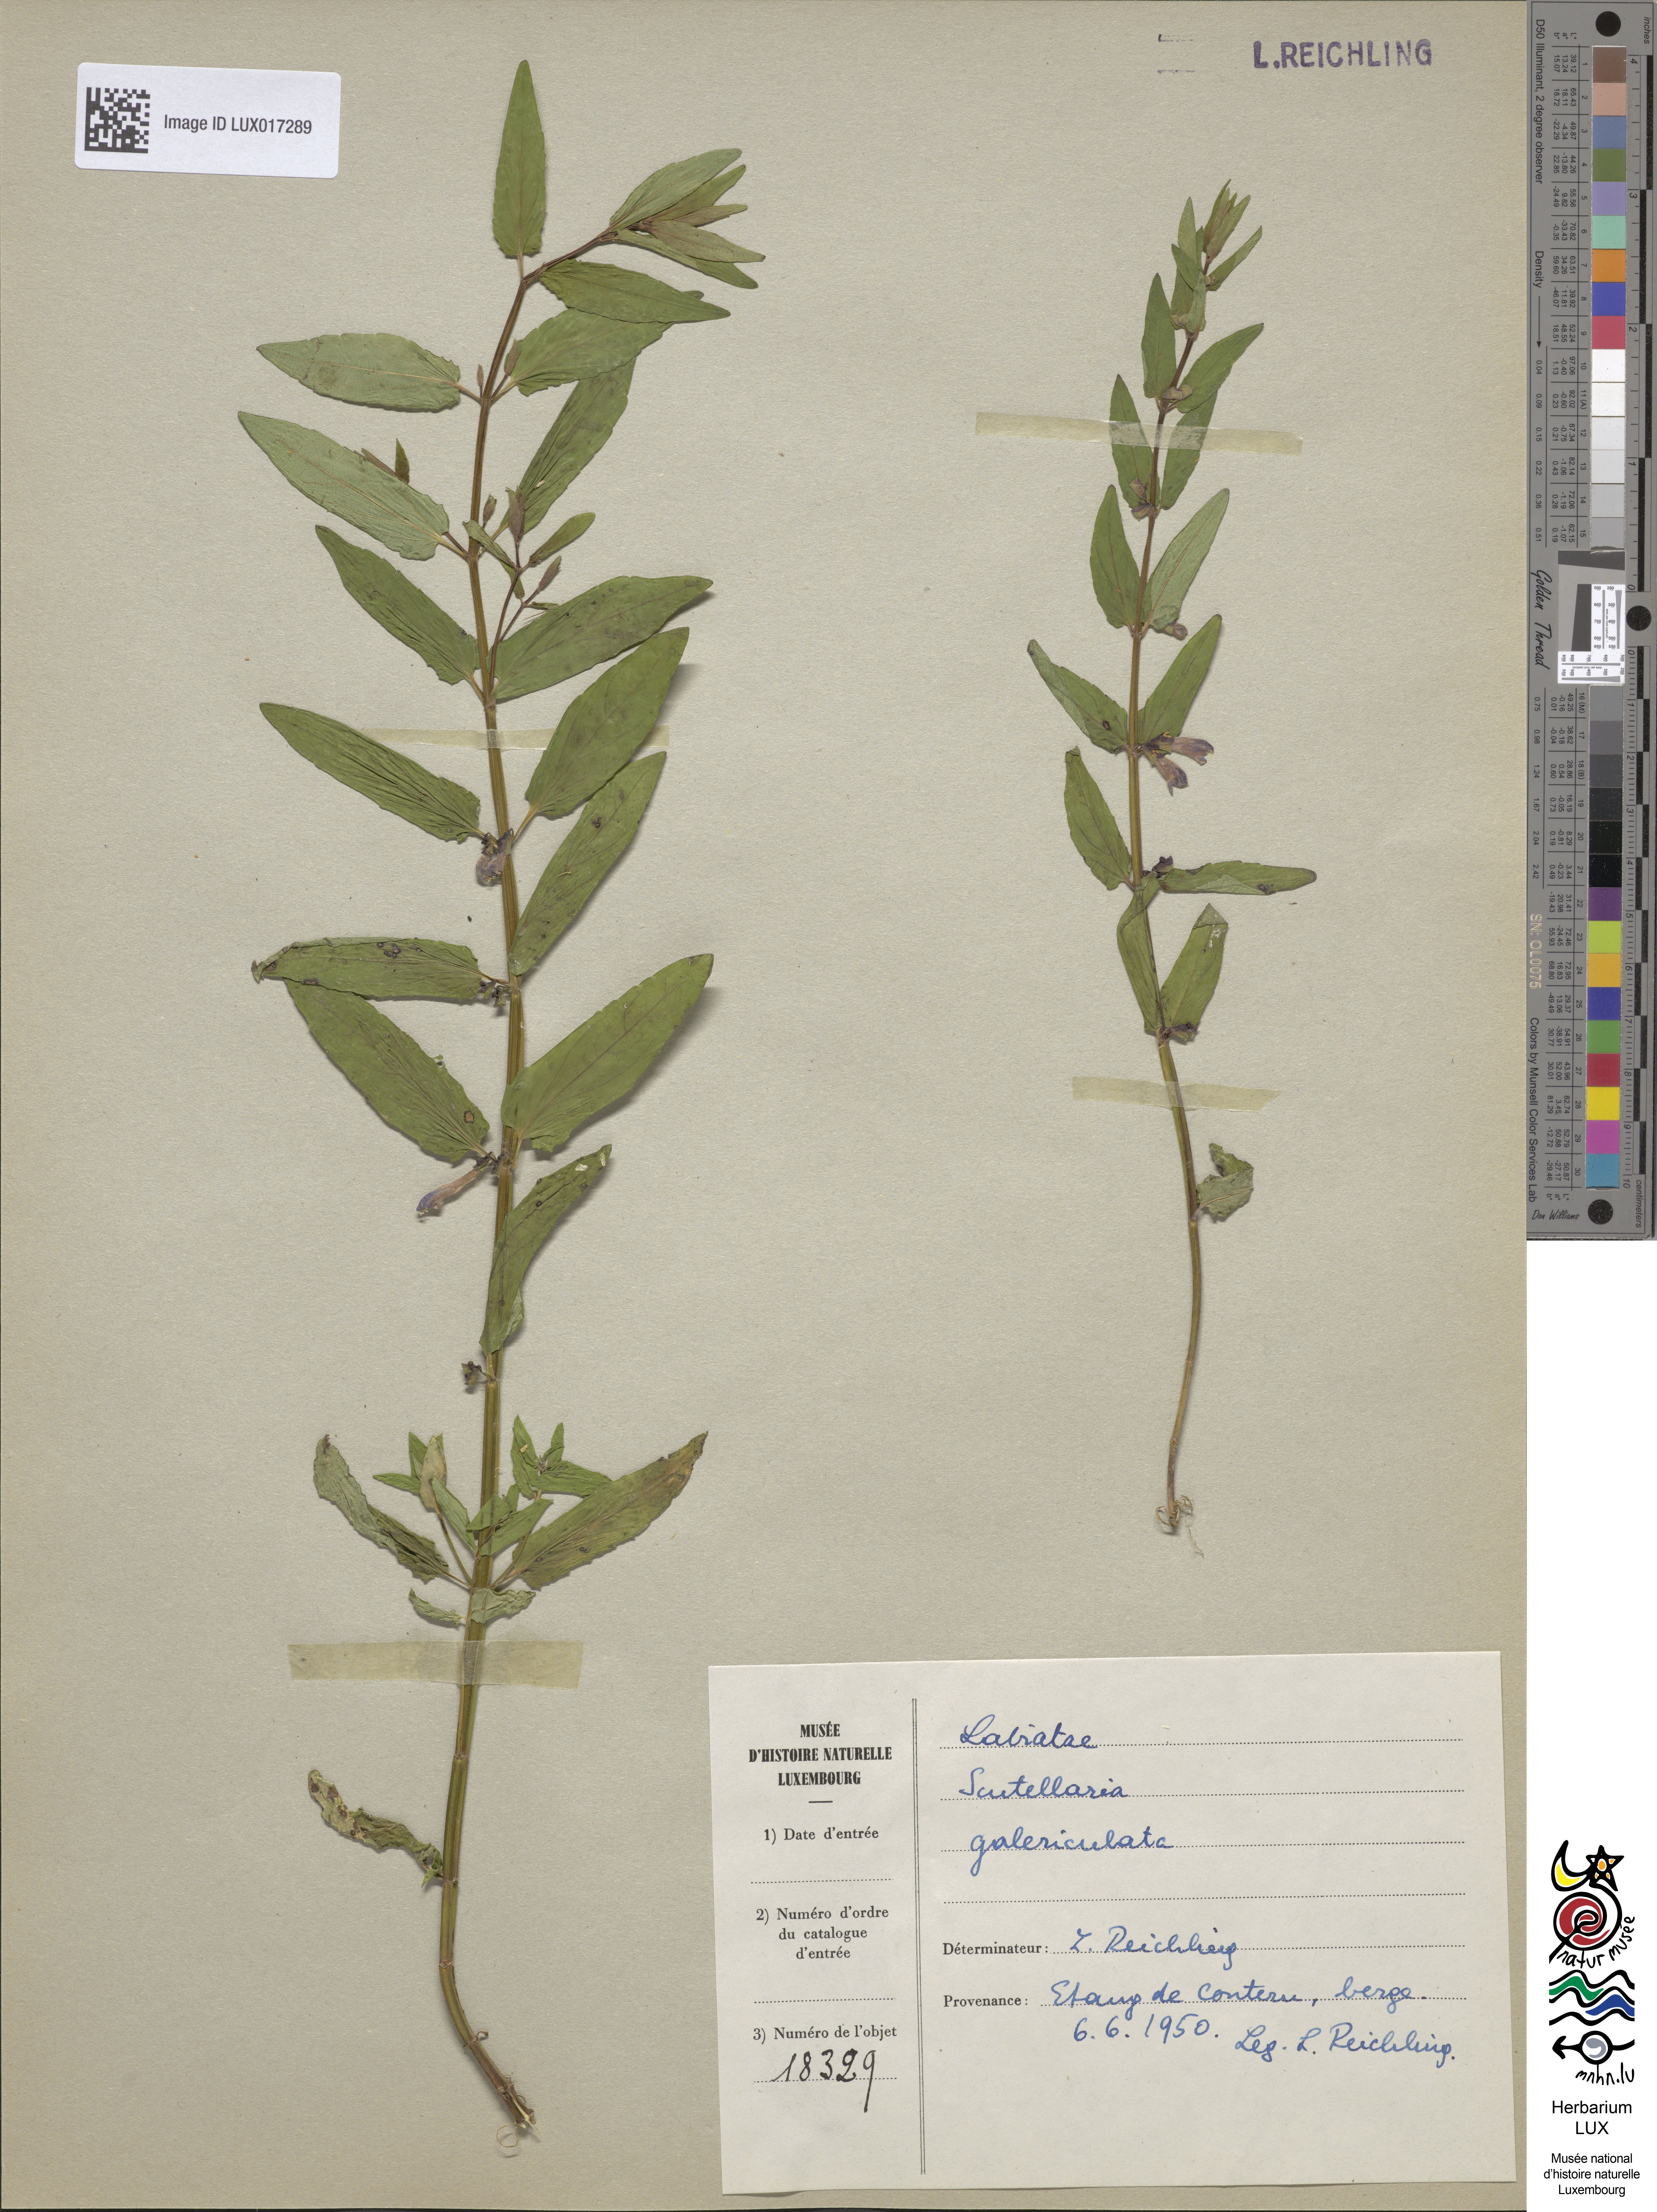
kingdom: Plantae
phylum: Tracheophyta
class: Magnoliopsida
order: Lamiales
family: Lamiaceae
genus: Scutellaria
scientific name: Scutellaria galericulata
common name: Skullcap
